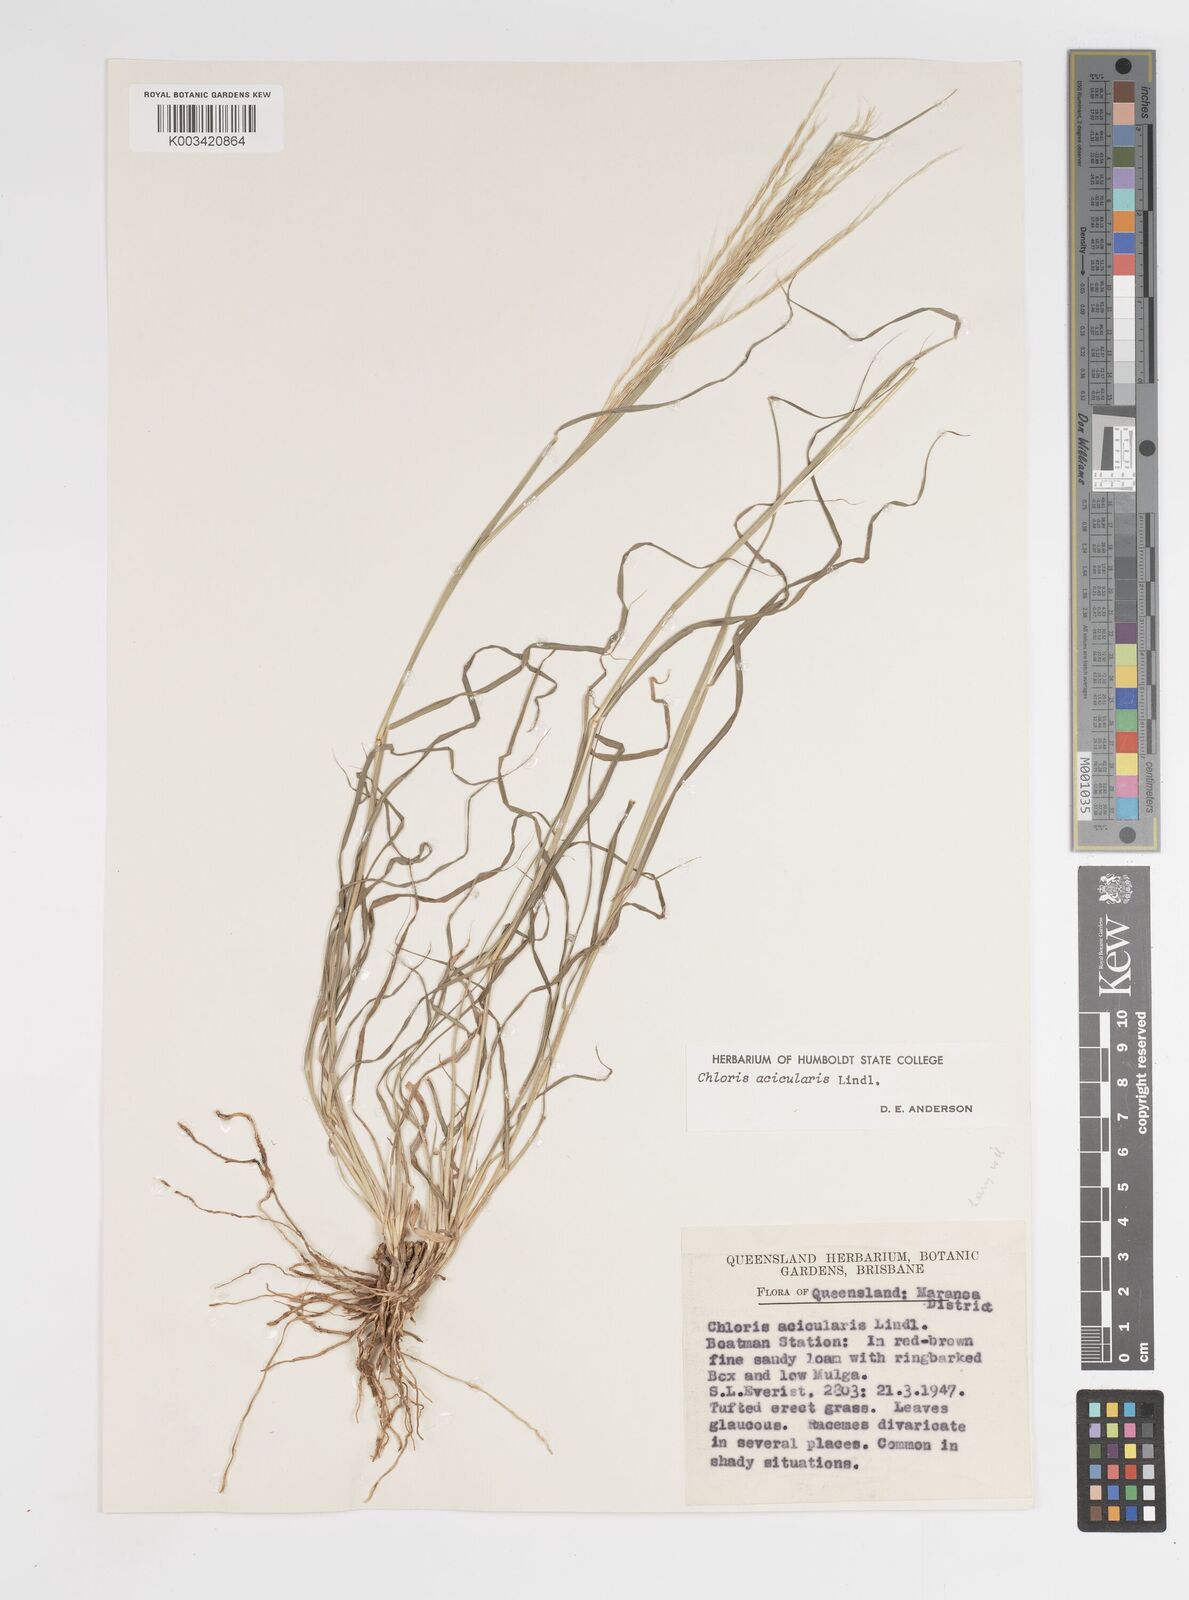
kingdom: Plantae
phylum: Tracheophyta
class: Liliopsida
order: Poales
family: Poaceae
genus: Enteropogon
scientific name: Enteropogon acicularis
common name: Curly windmill grass
